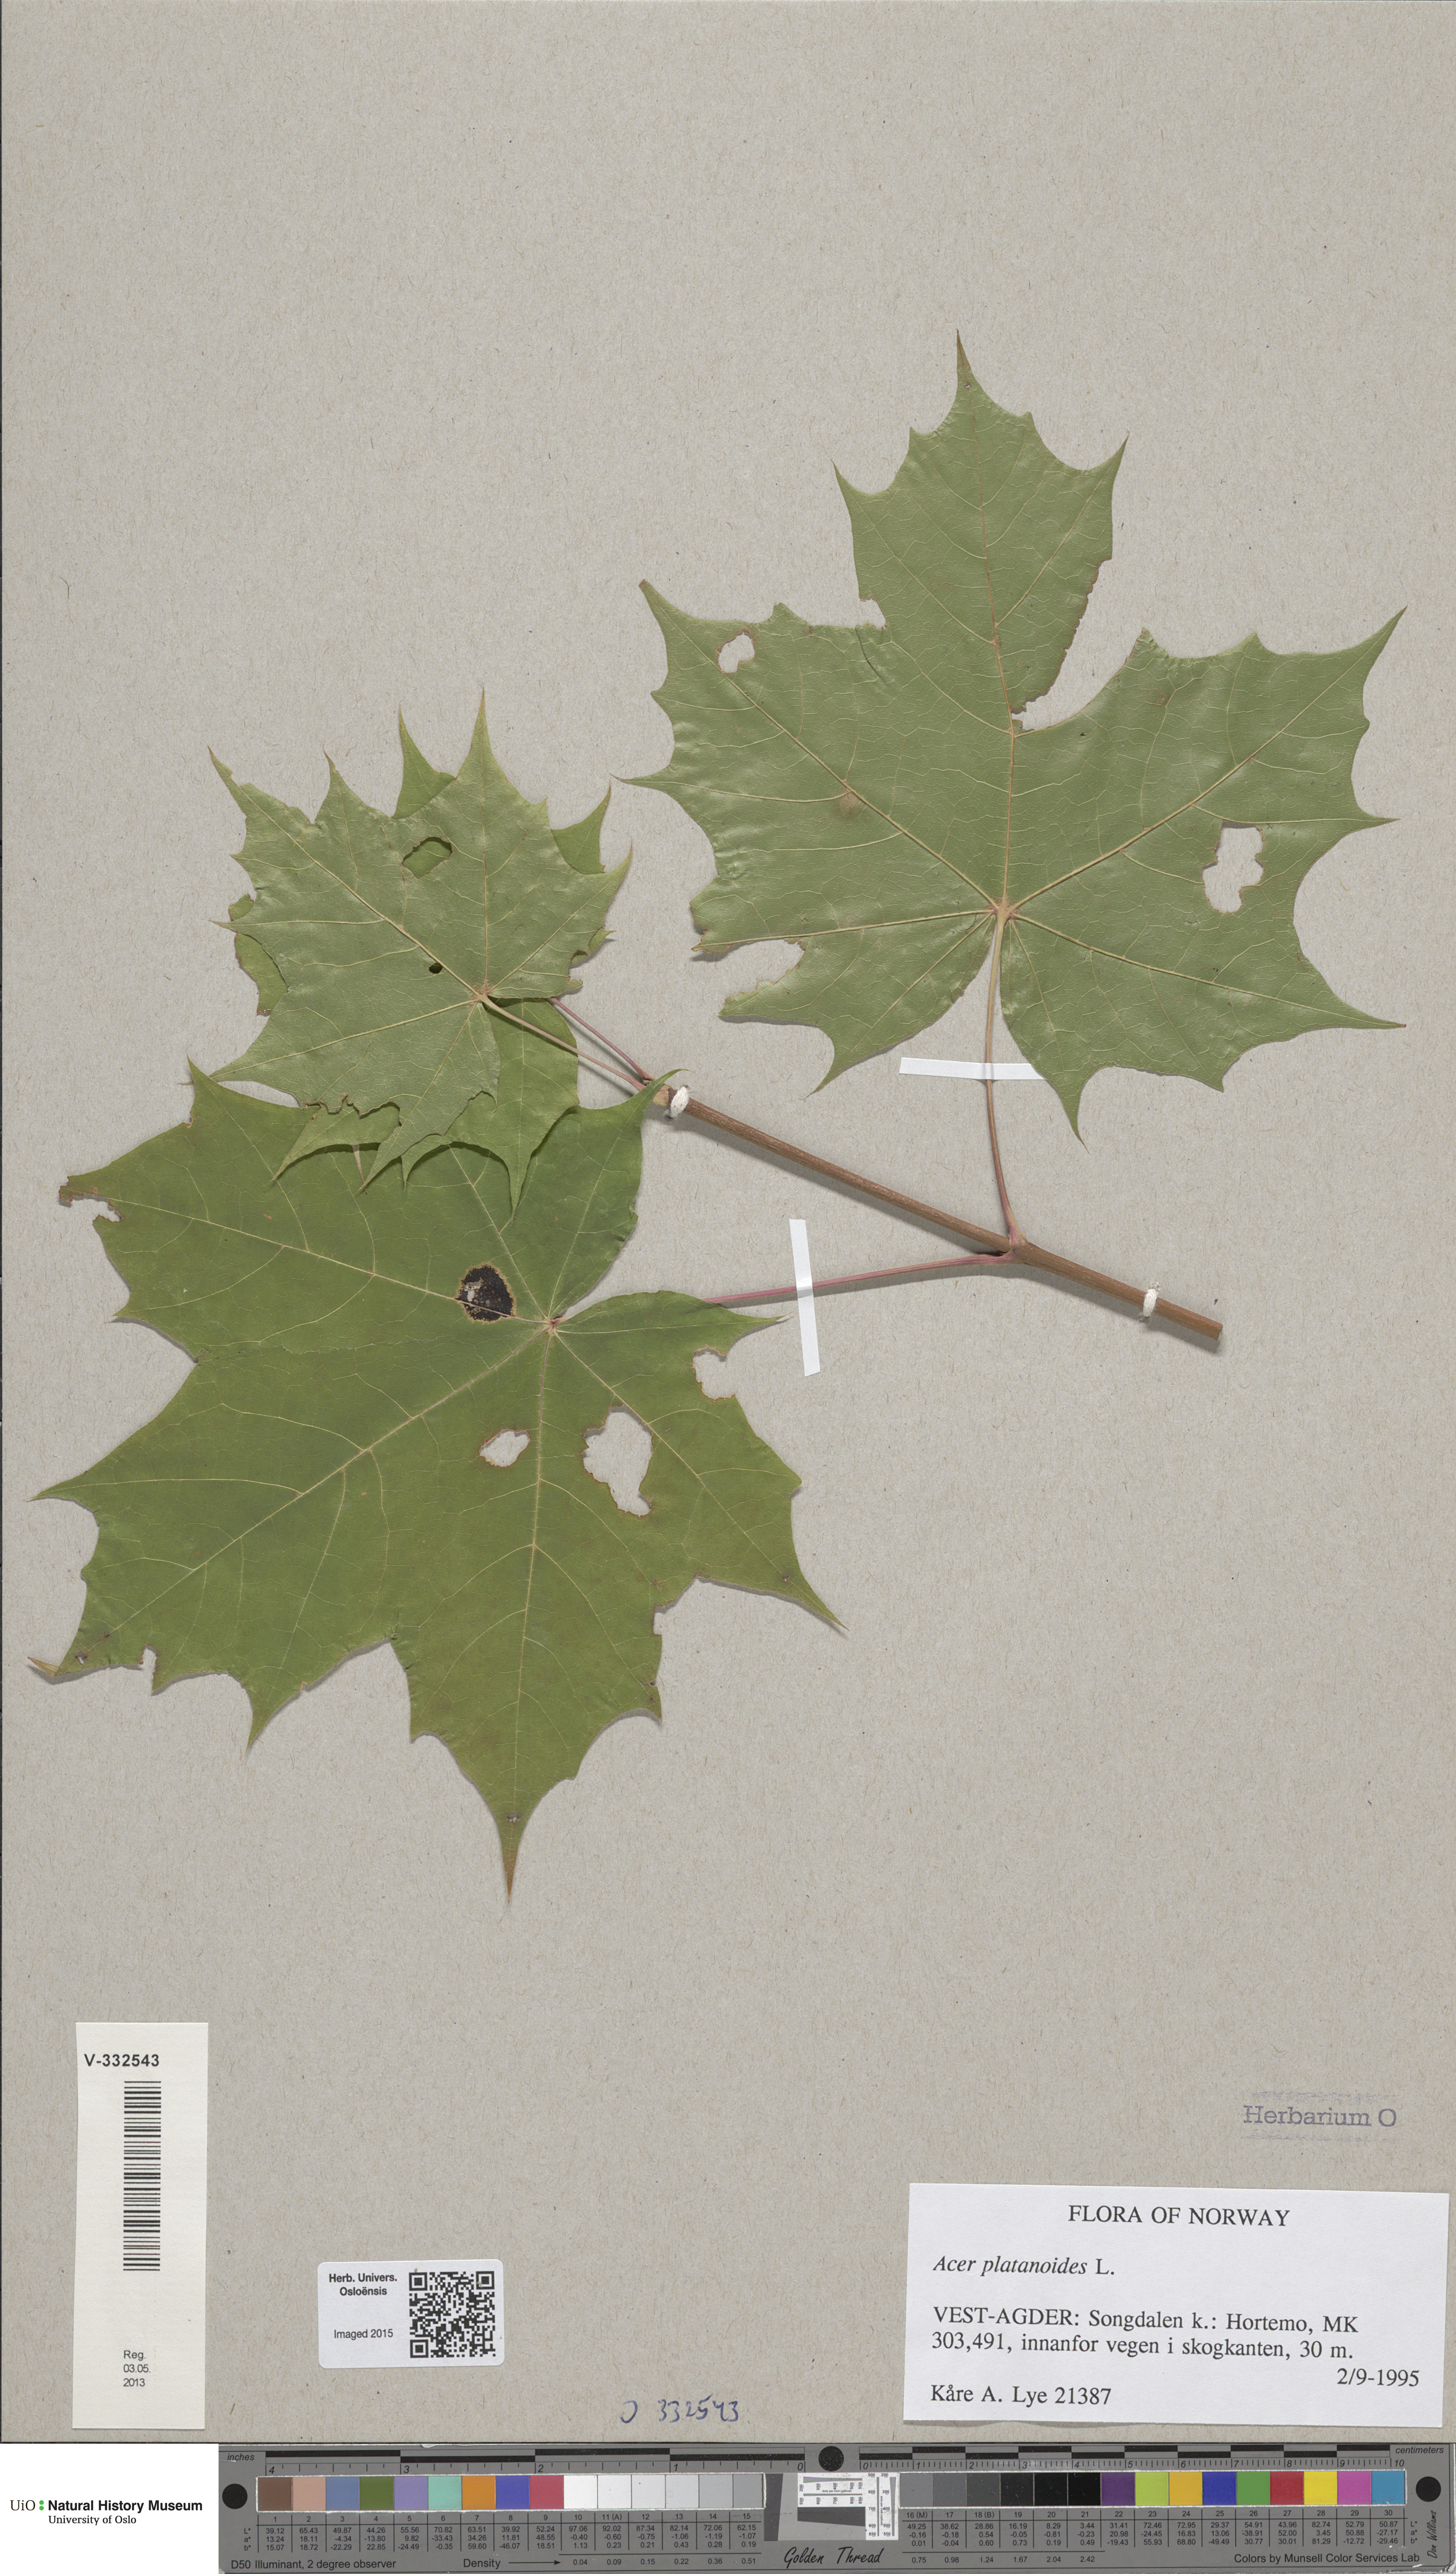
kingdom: Plantae
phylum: Tracheophyta
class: Magnoliopsida
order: Sapindales
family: Sapindaceae
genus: Acer
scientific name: Acer platanoides
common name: Norway maple
